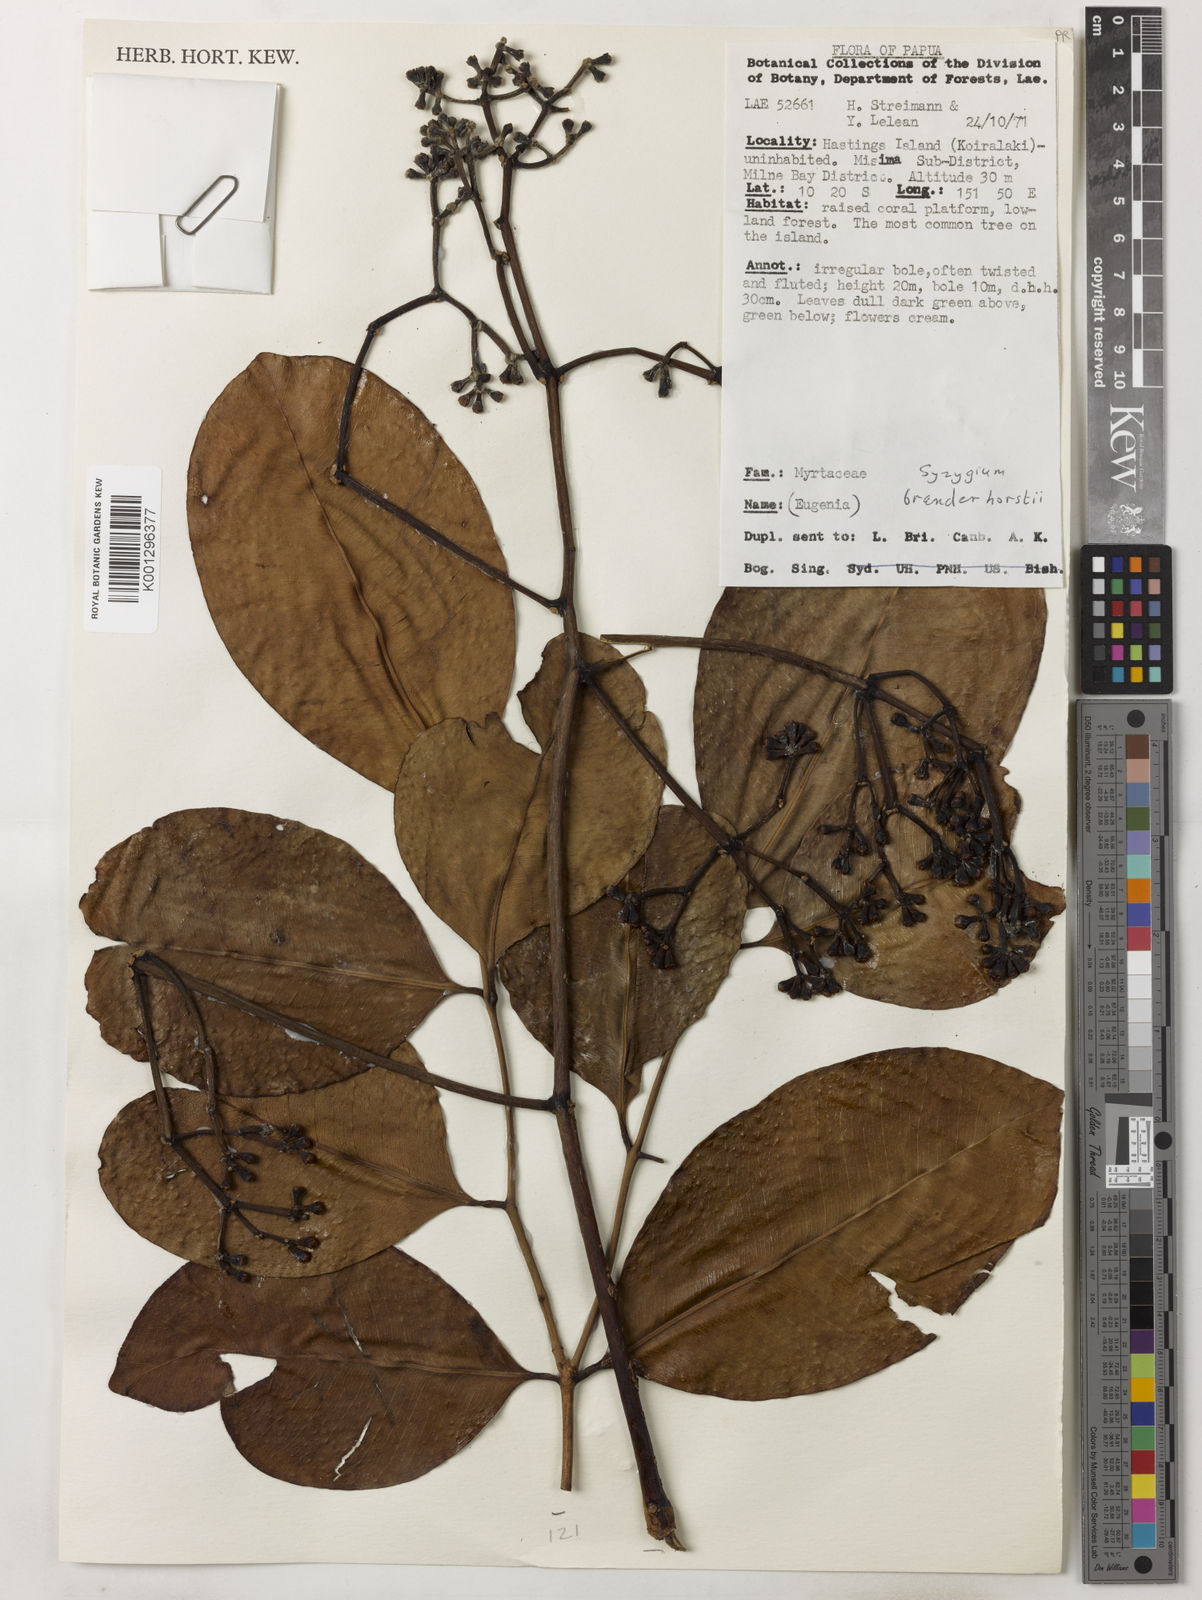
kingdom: Plantae
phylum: Tracheophyta
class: Magnoliopsida
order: Myrtales
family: Myrtaceae
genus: Syzygium
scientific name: Syzygium branderhorstii
